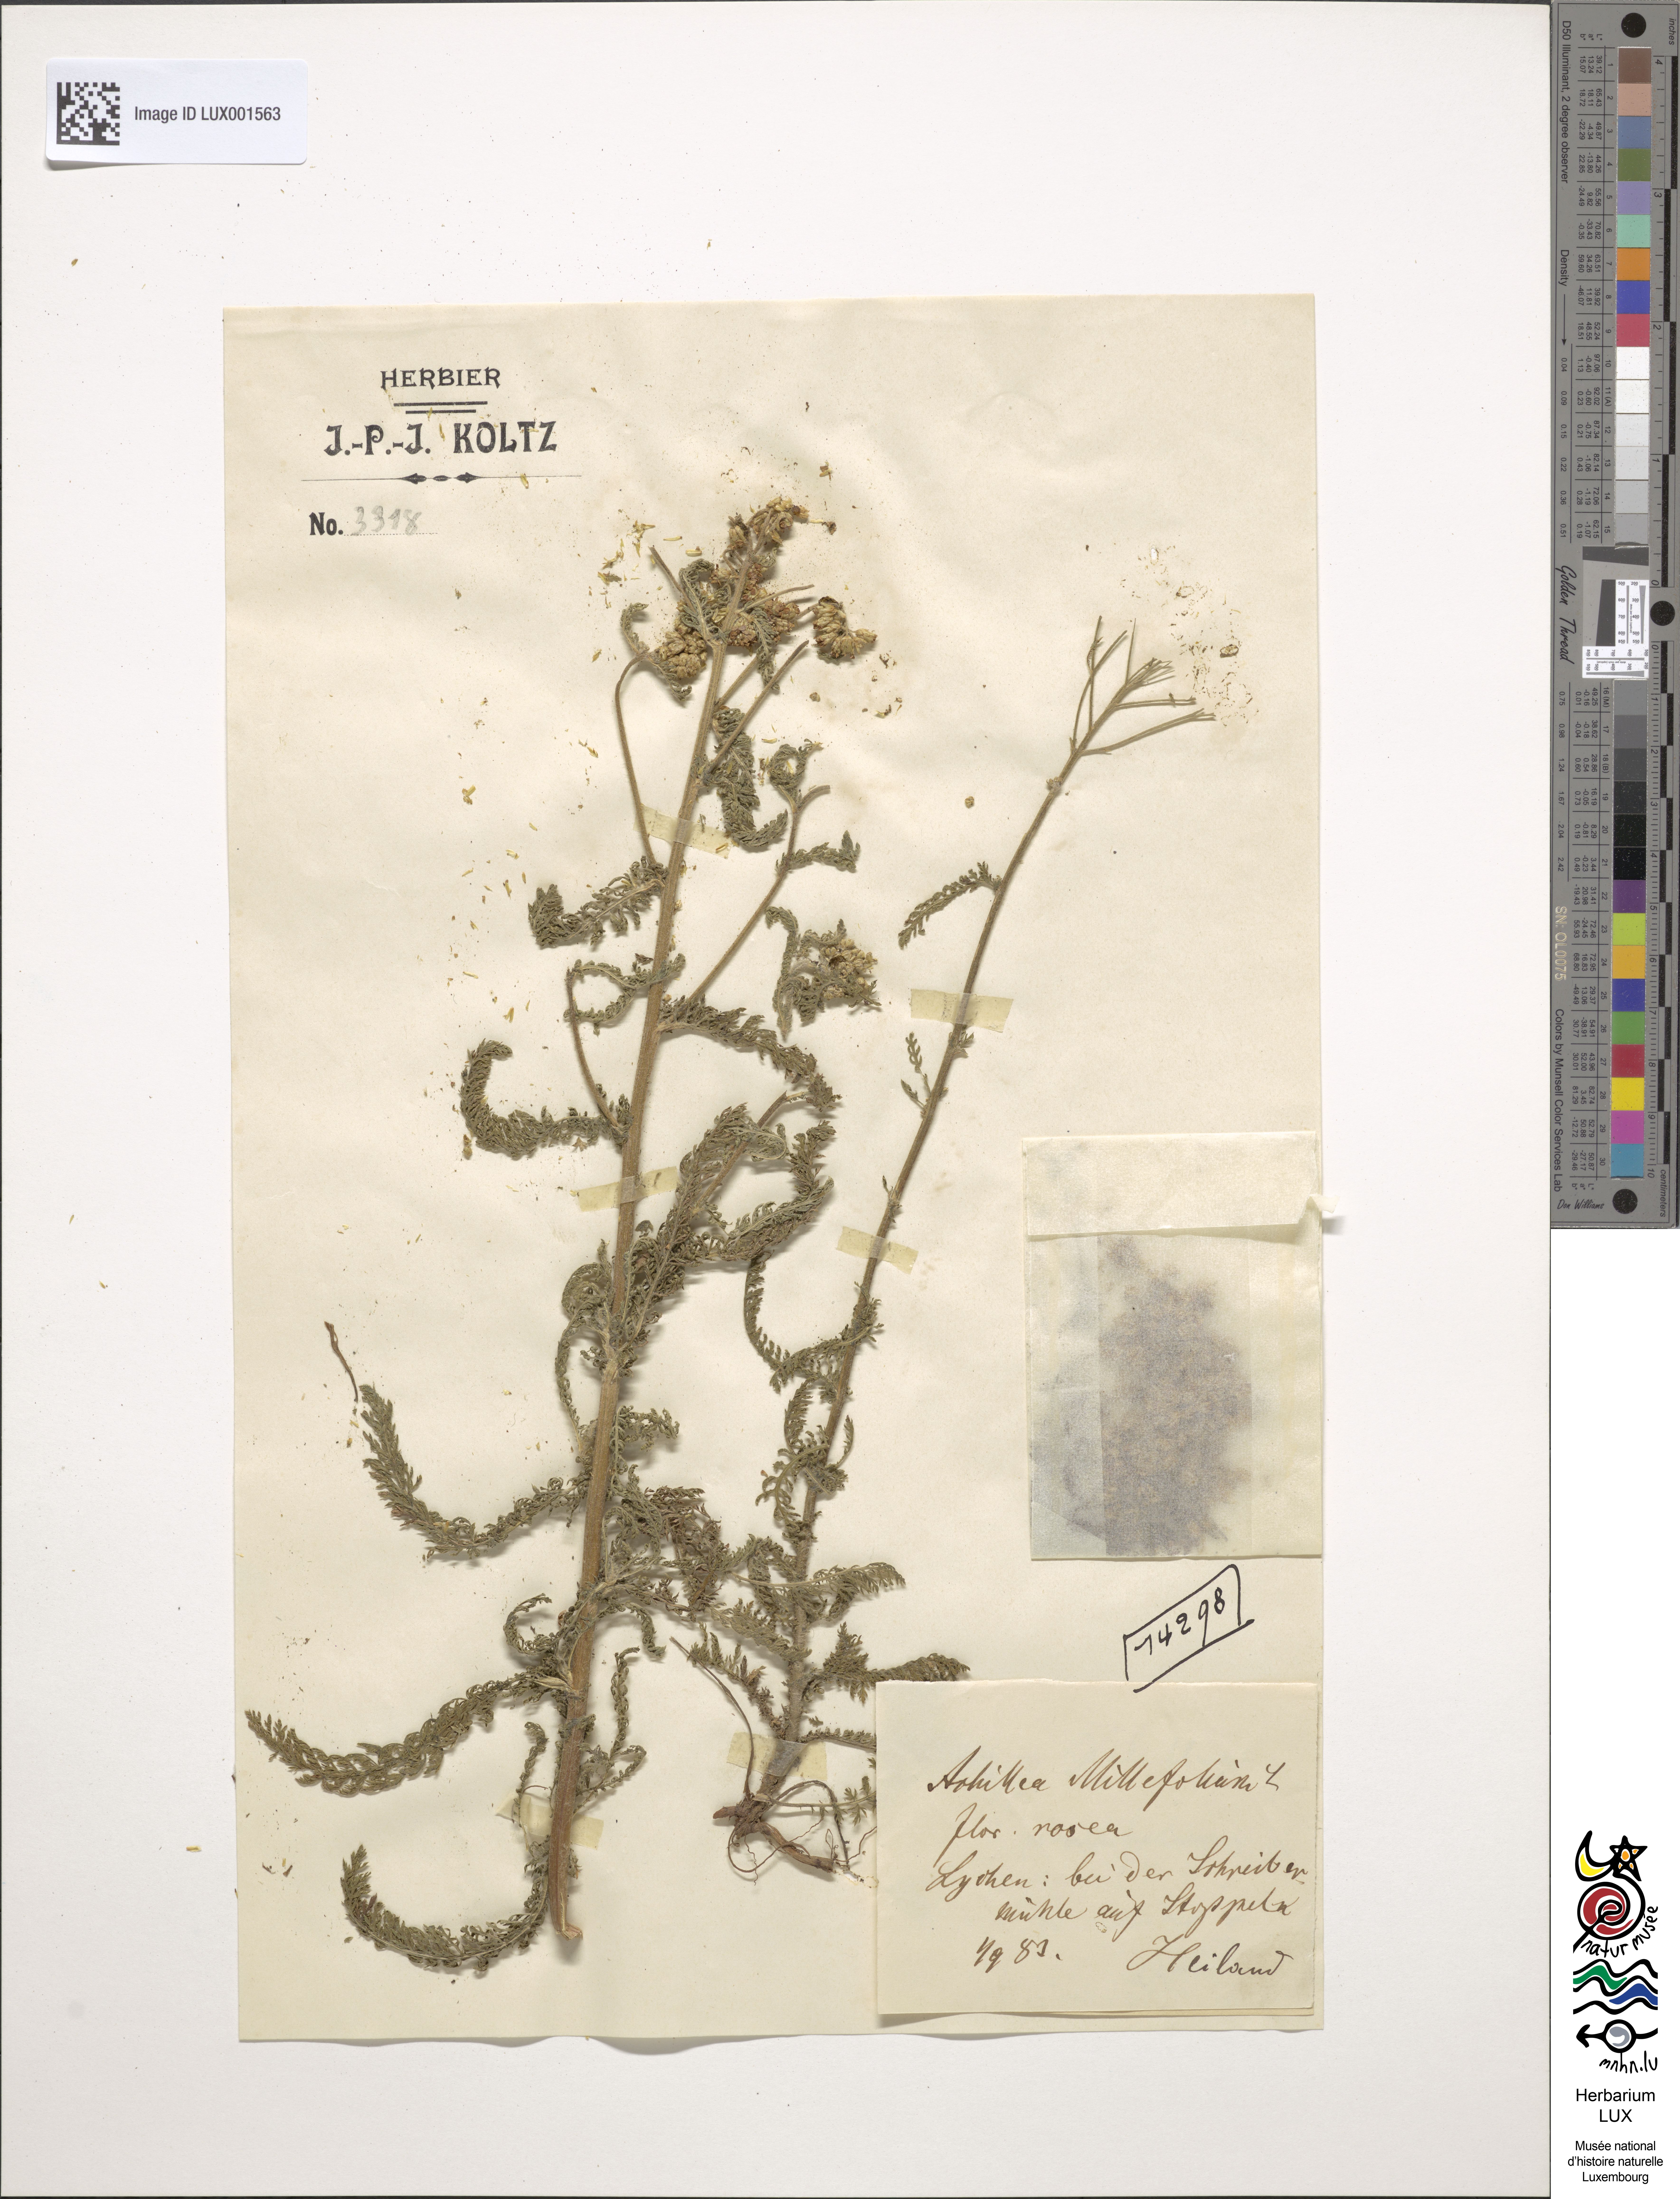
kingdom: Plantae
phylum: Tracheophyta
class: Magnoliopsida
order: Asterales
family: Asteraceae
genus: Achillea
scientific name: Achillea millefolium
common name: Yarrow
